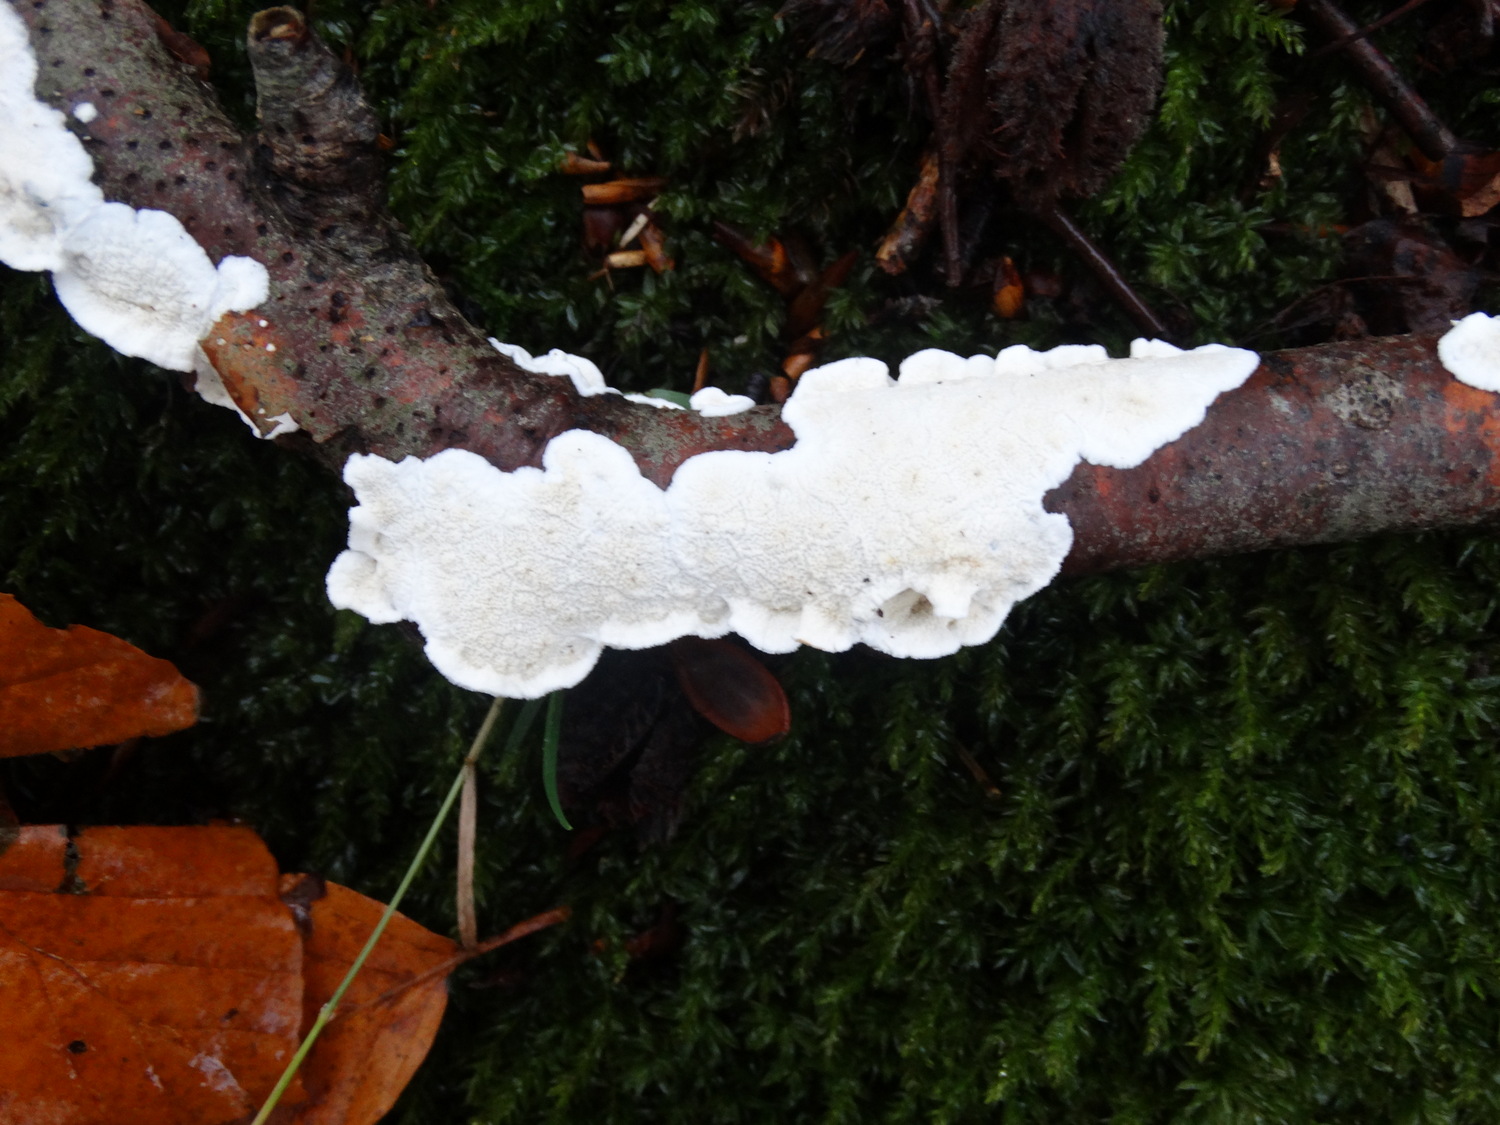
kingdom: Fungi
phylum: Basidiomycota
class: Agaricomycetes
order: Polyporales
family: Irpicaceae
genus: Byssomerulius
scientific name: Byssomerulius corium
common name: læder-åresvamp
